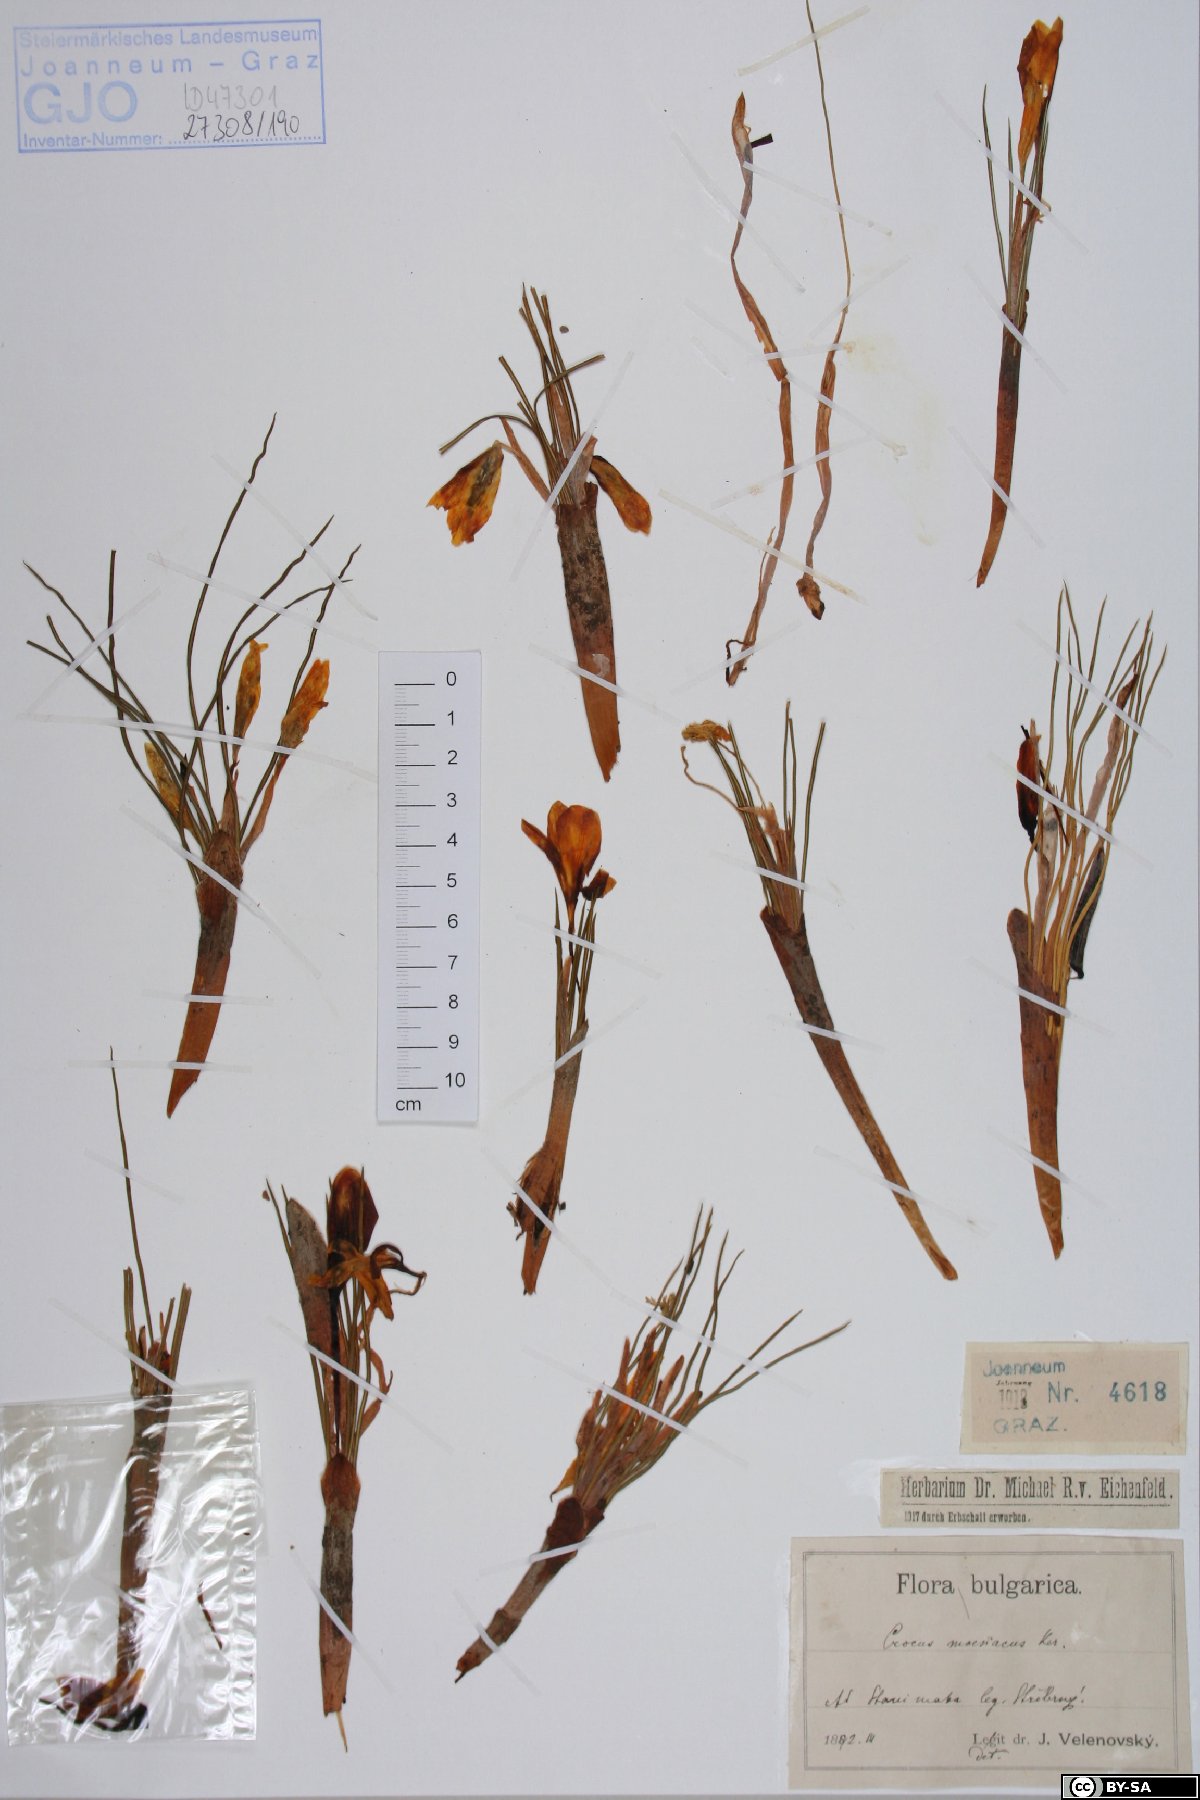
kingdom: Plantae
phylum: Tracheophyta
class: Liliopsida
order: Asparagales
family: Iridaceae
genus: Crocus
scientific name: Crocus flavus
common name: Yellow crocus
